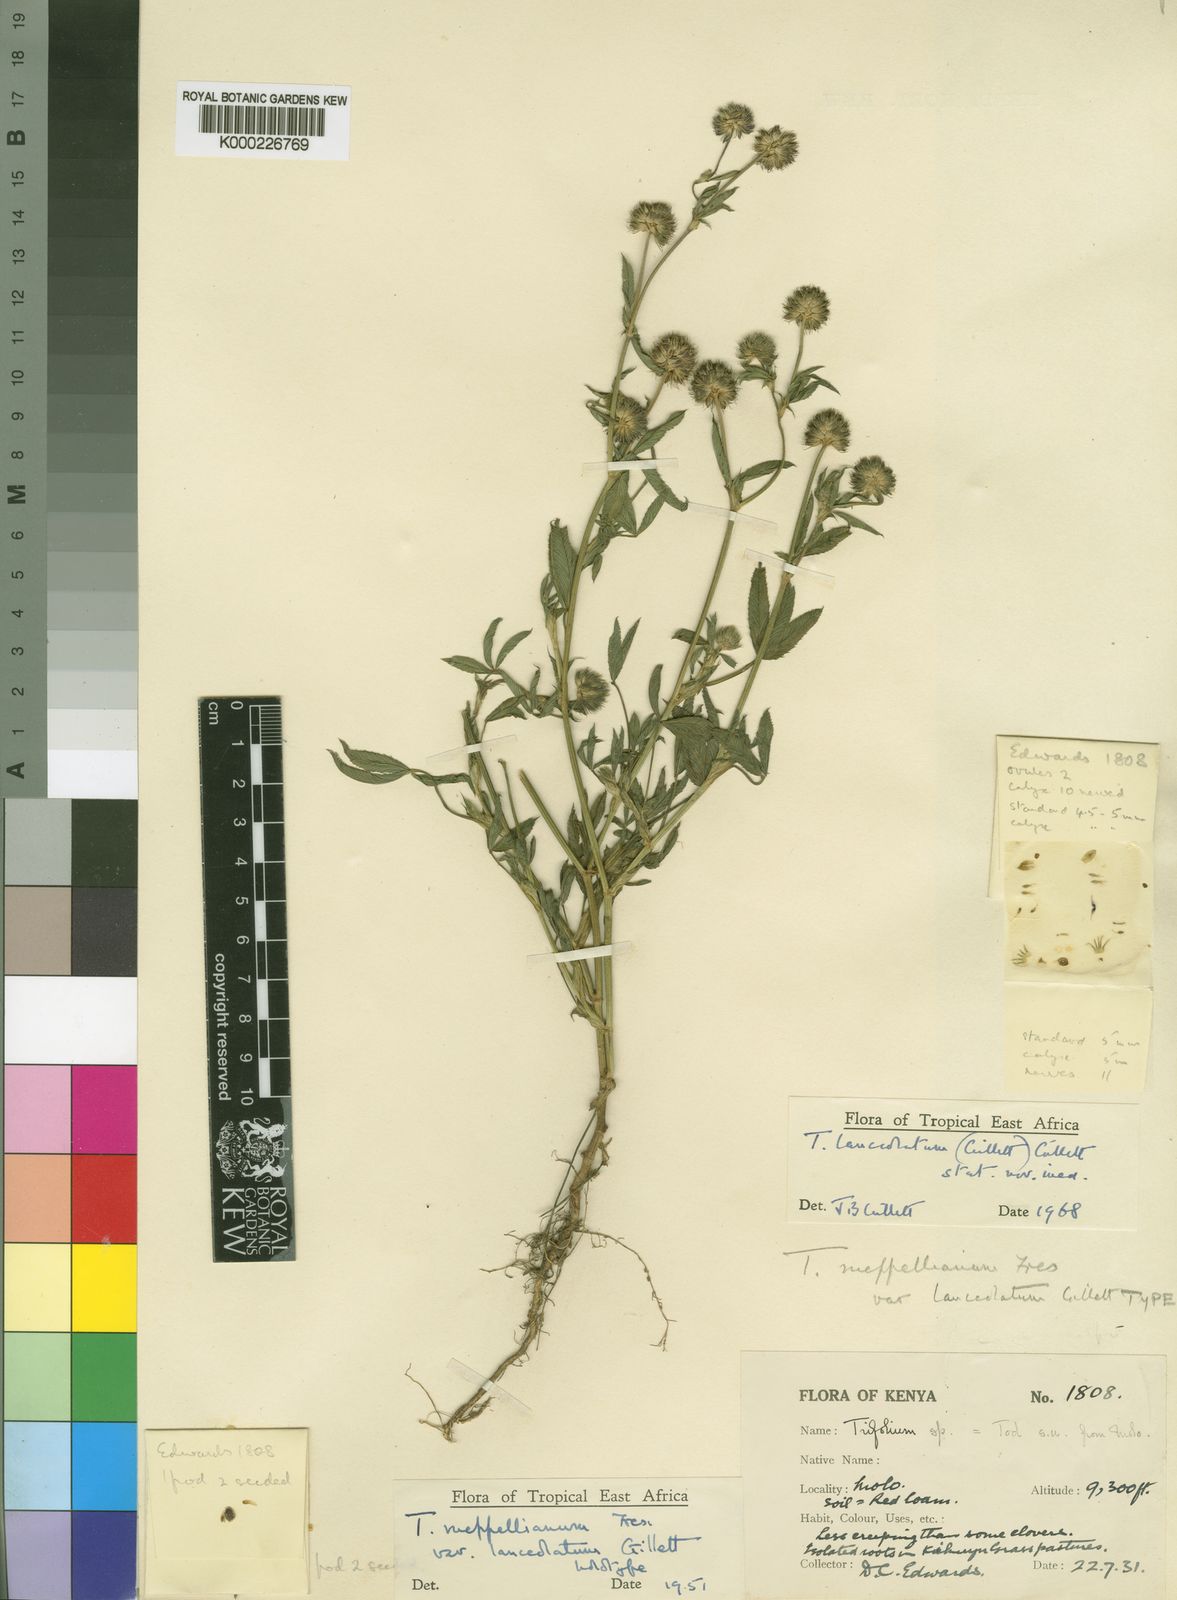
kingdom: Plantae
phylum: Tracheophyta
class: Magnoliopsida
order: Fabales
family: Fabaceae
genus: Trifolium
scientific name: Trifolium rueppellianum
